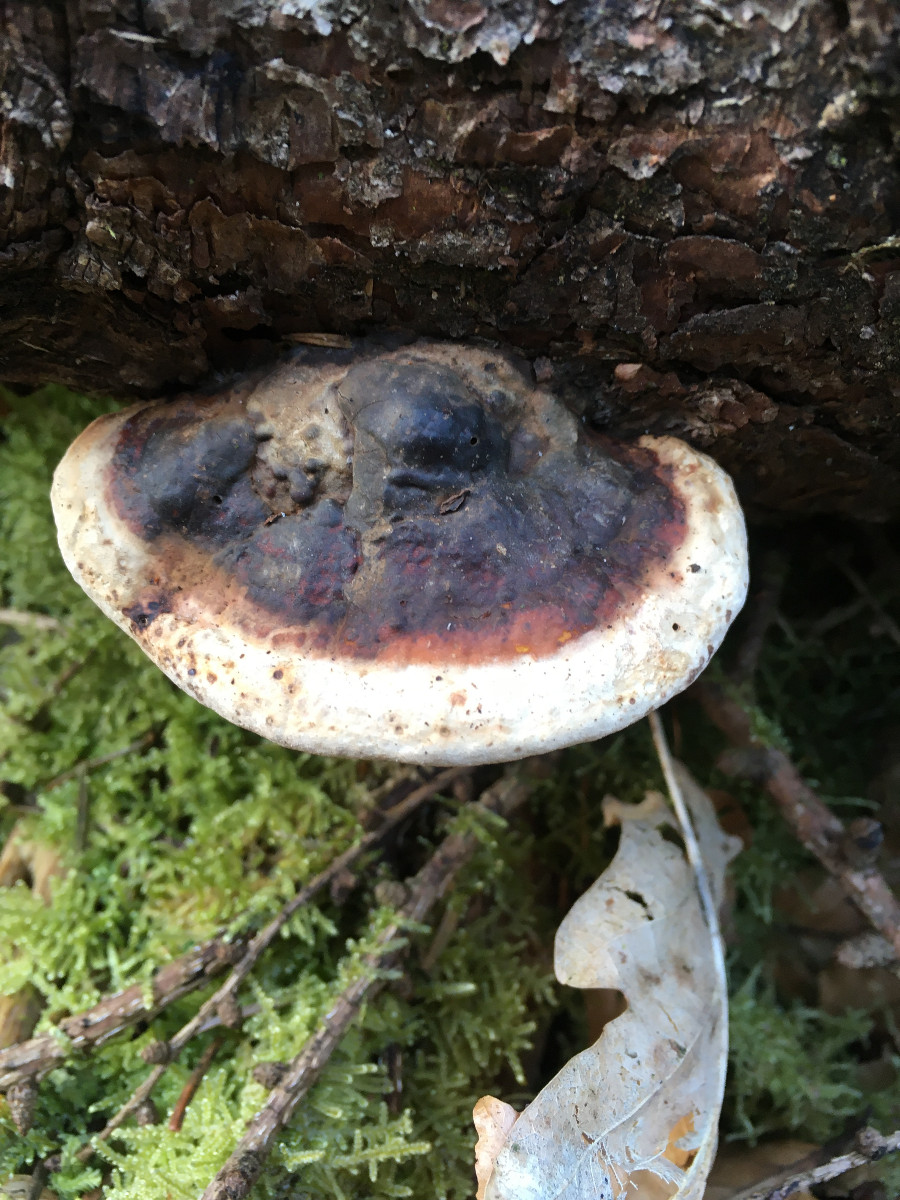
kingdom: Fungi
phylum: Basidiomycota
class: Agaricomycetes
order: Polyporales
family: Fomitopsidaceae
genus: Fomitopsis
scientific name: Fomitopsis pinicola
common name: randbæltet hovporesvamp
